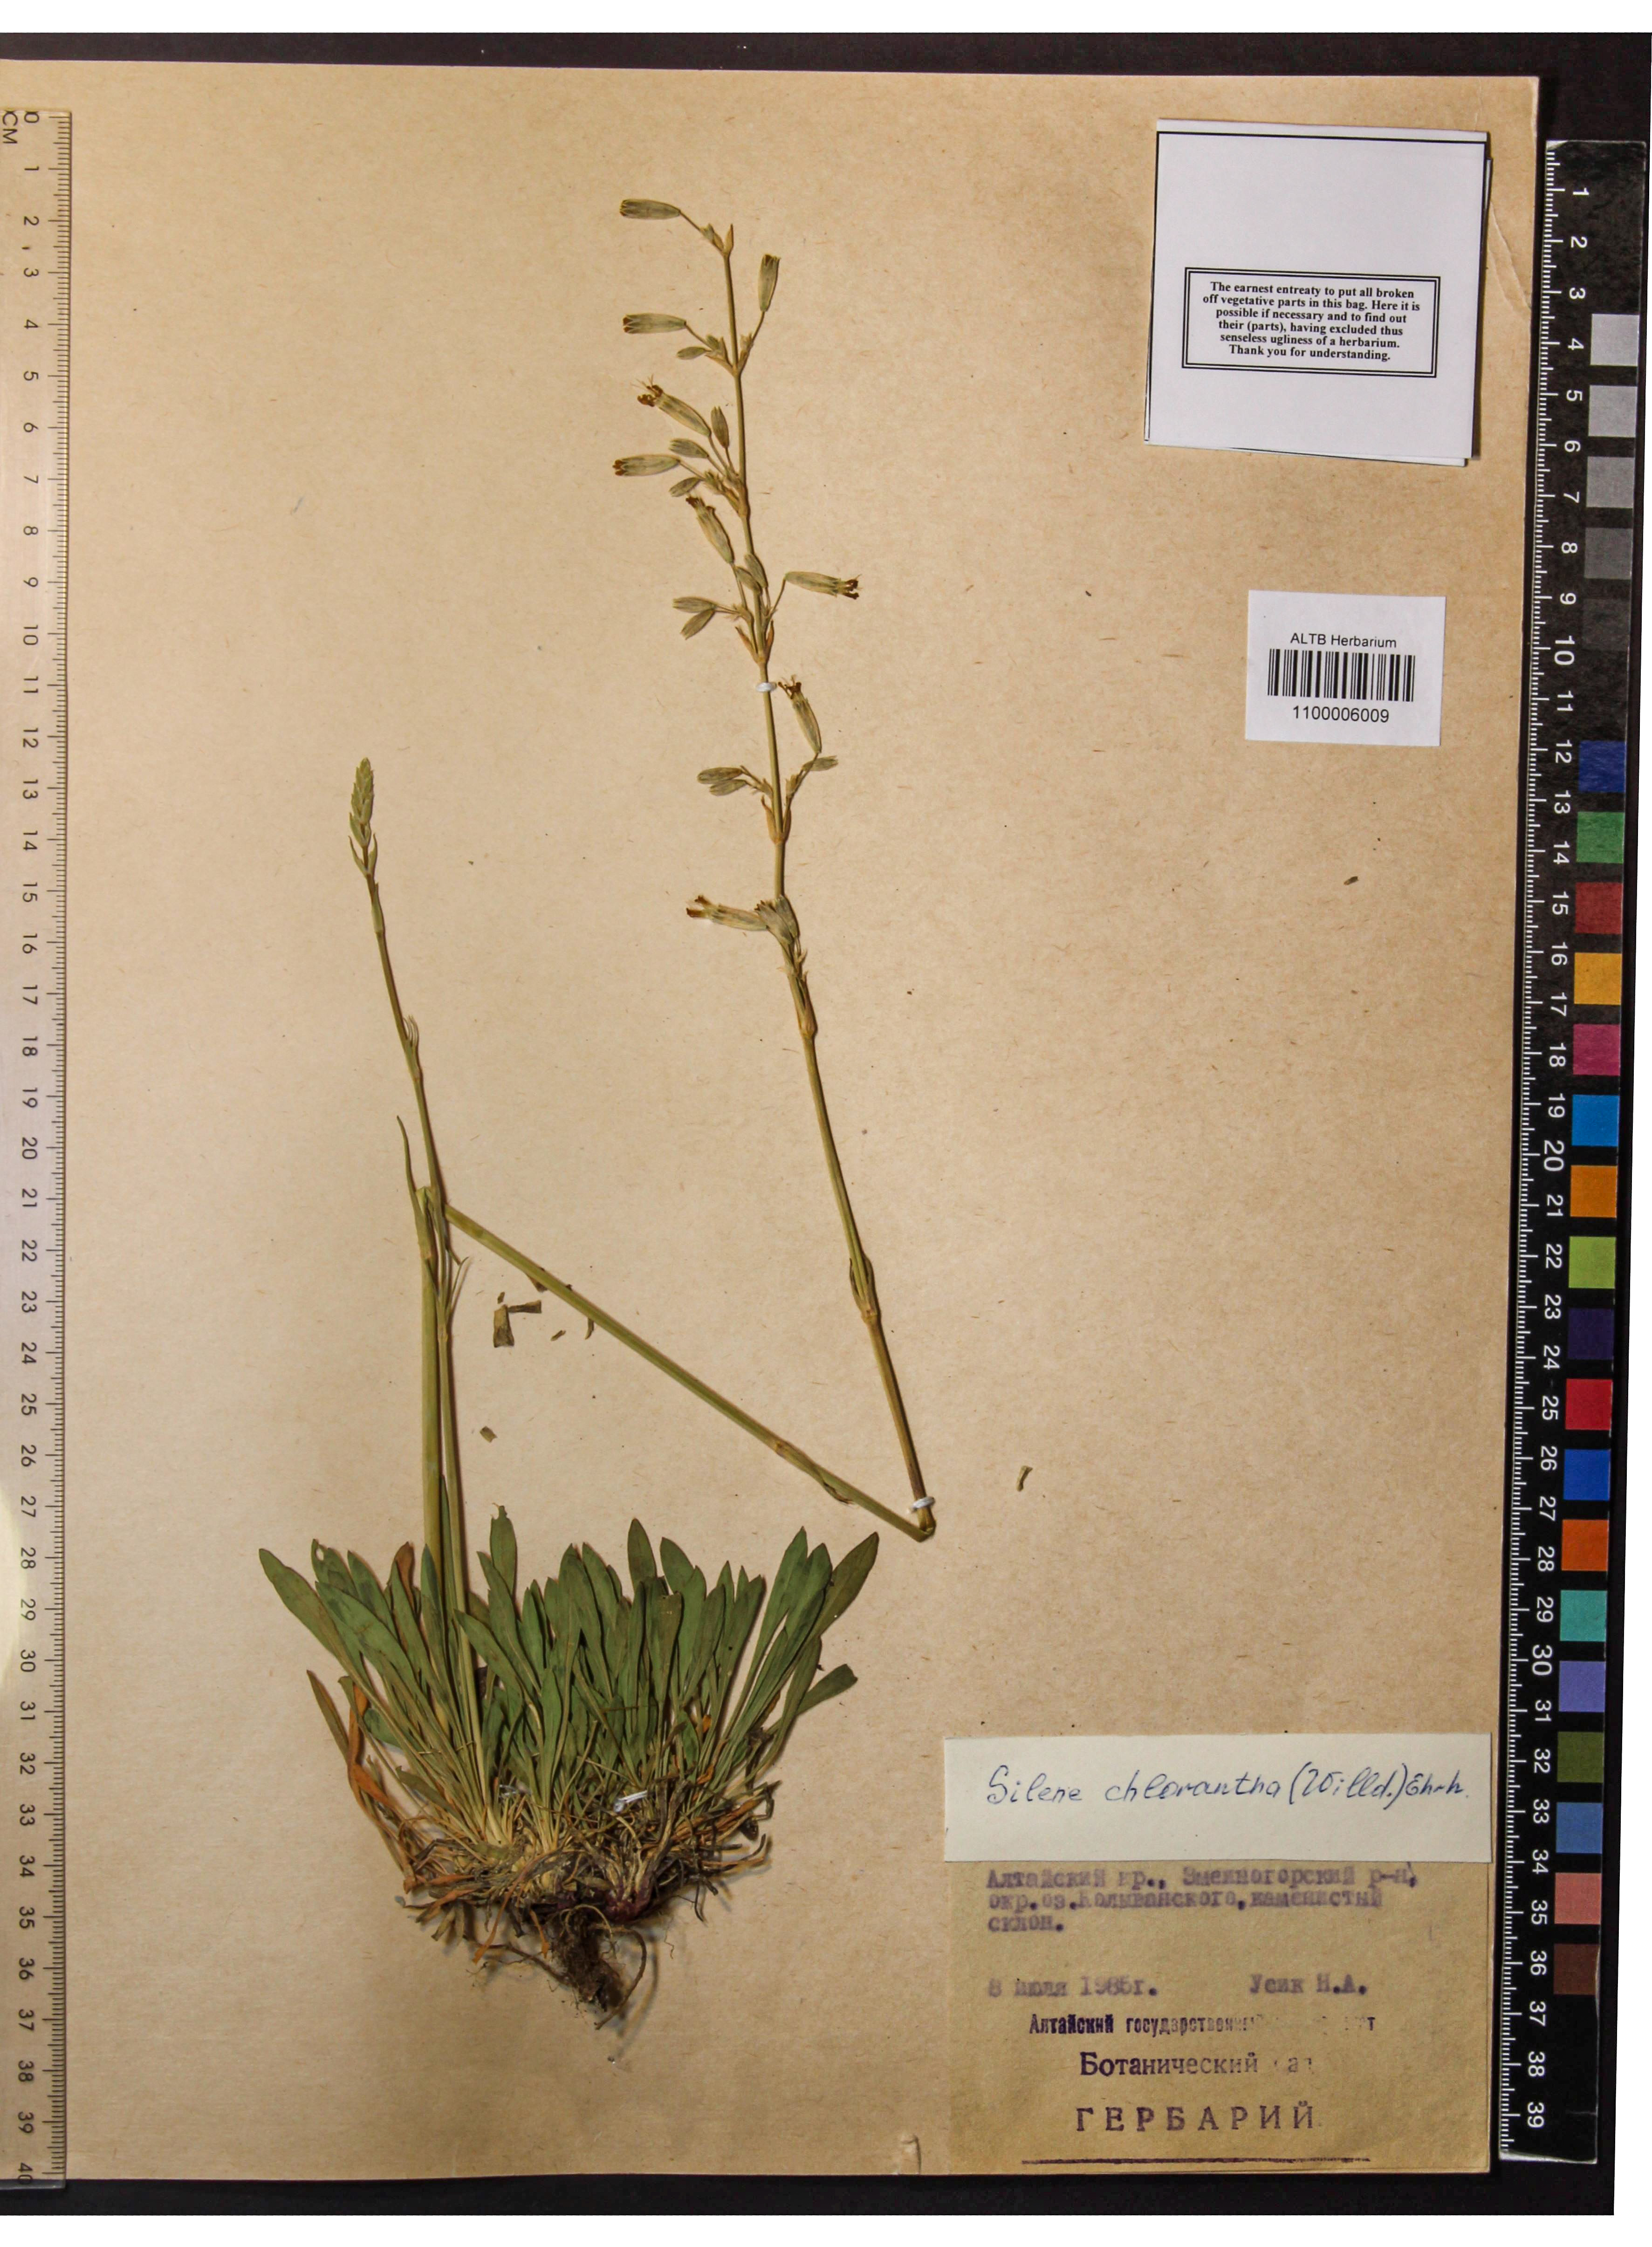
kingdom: Plantae
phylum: Tracheophyta
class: Magnoliopsida
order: Caryophyllales
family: Caryophyllaceae
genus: Silene
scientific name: Silene chlorantha
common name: Yellowgreen catchfly
